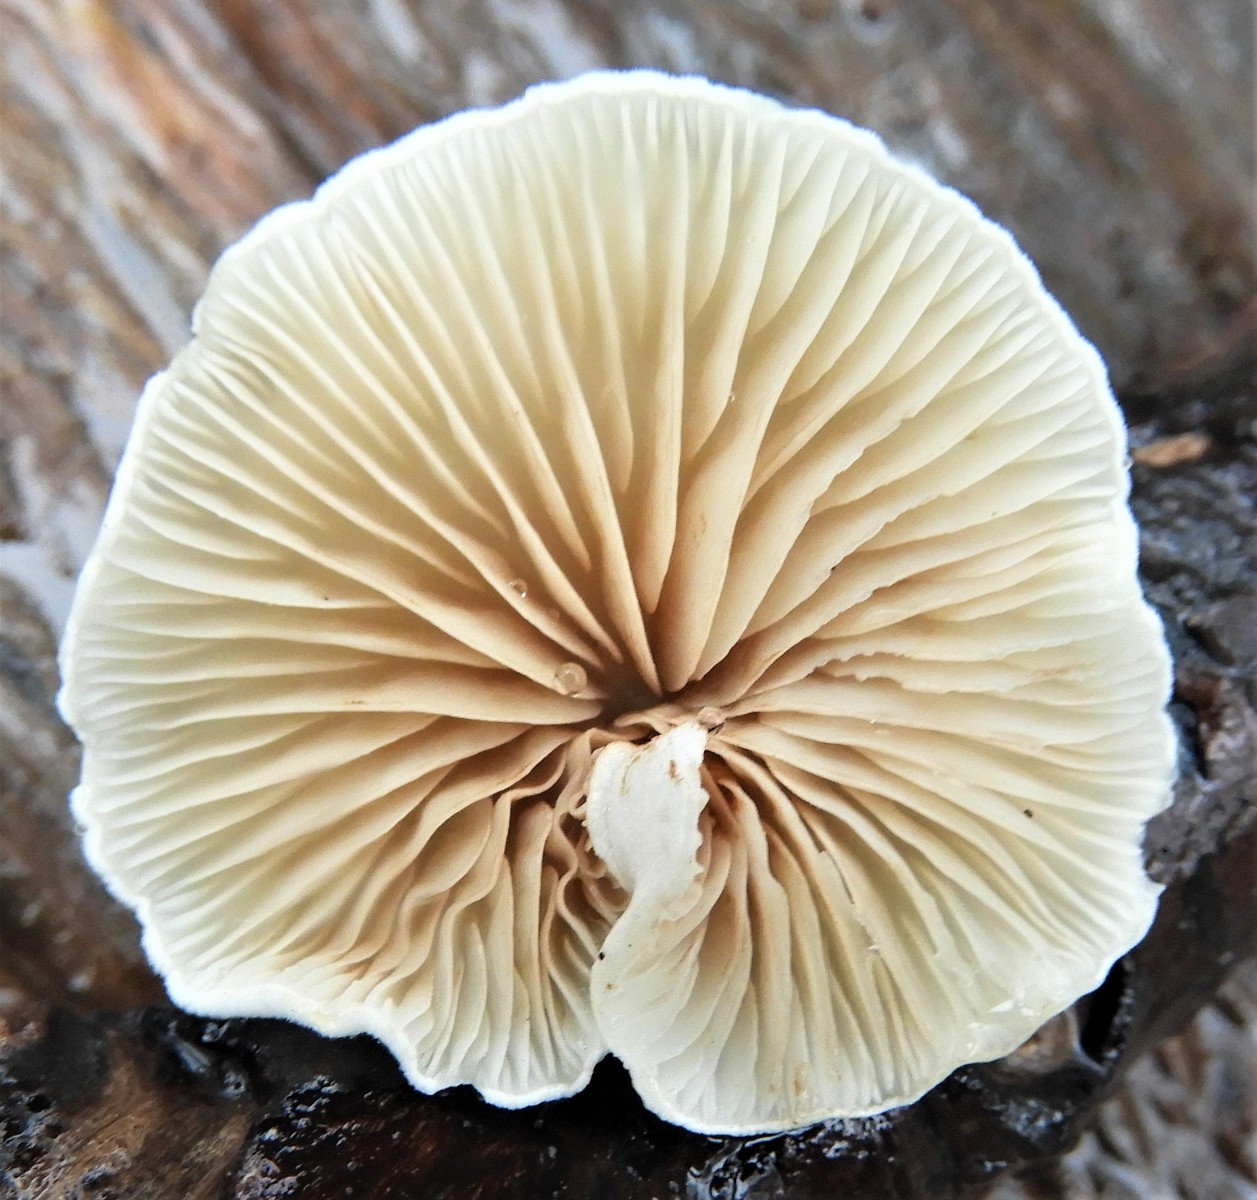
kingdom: Fungi
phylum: Basidiomycota
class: Agaricomycetes
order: Agaricales
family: Crepidotaceae
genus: Crepidotus
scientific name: Crepidotus
